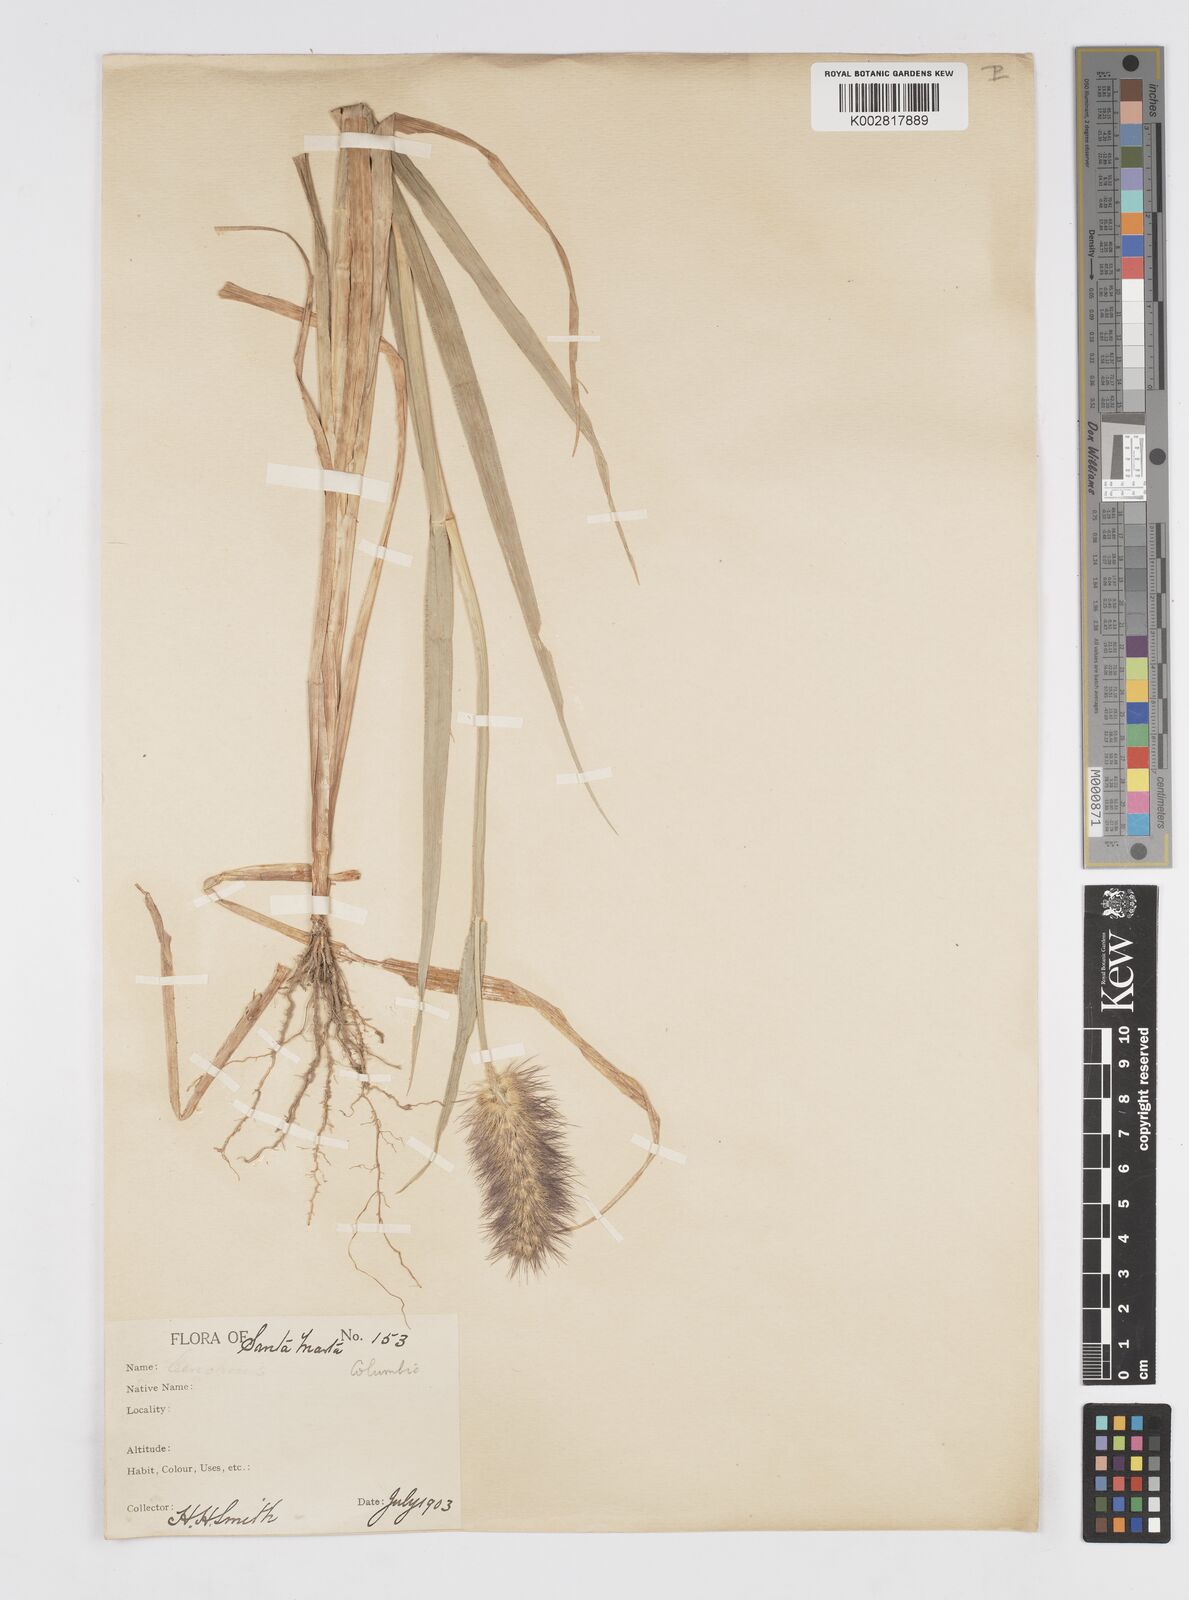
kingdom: Plantae
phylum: Tracheophyta
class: Liliopsida
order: Poales
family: Poaceae
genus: Cenchrus
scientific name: Cenchrus pilosus
